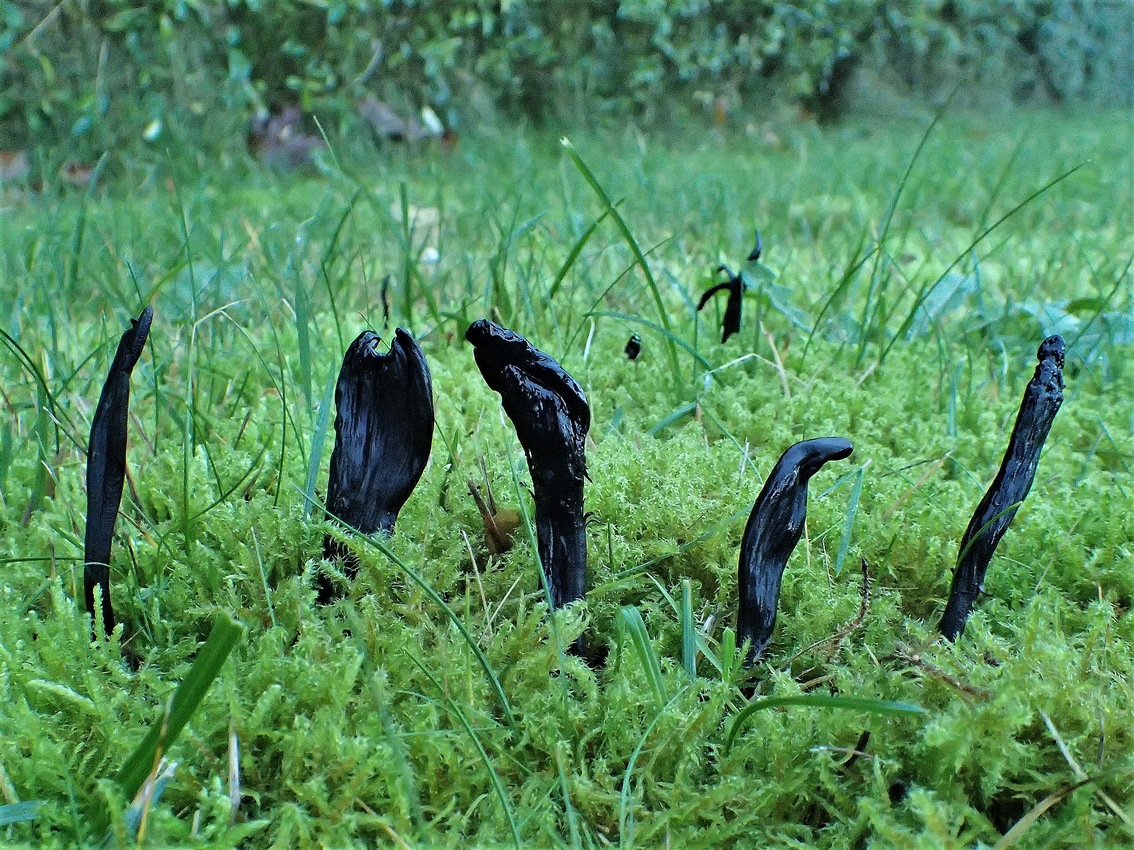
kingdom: Fungi
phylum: Ascomycota
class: Geoglossomycetes
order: Geoglossales
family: Geoglossaceae
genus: Geoglossum
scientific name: Geoglossum cookeianum
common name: bred jordtunge
